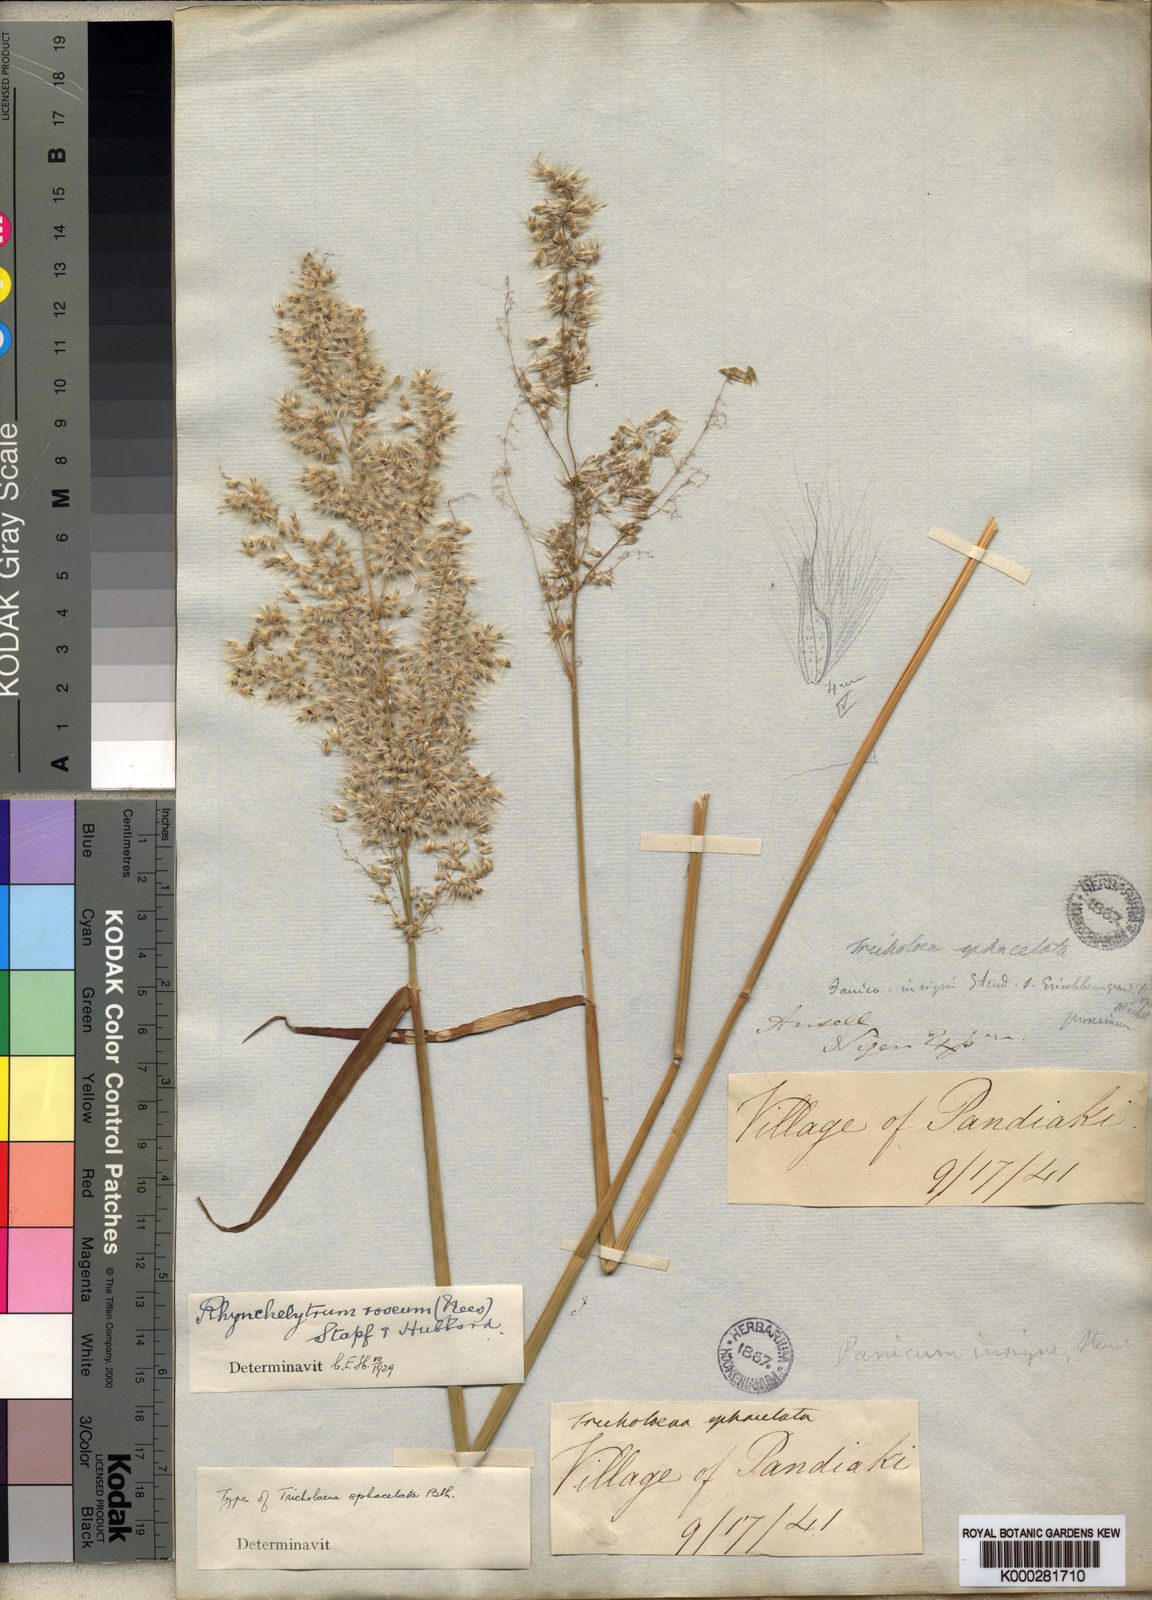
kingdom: Plantae
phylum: Tracheophyta
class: Liliopsida
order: Poales
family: Poaceae
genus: Melinis
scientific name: Melinis repens
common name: Rose natal grass
